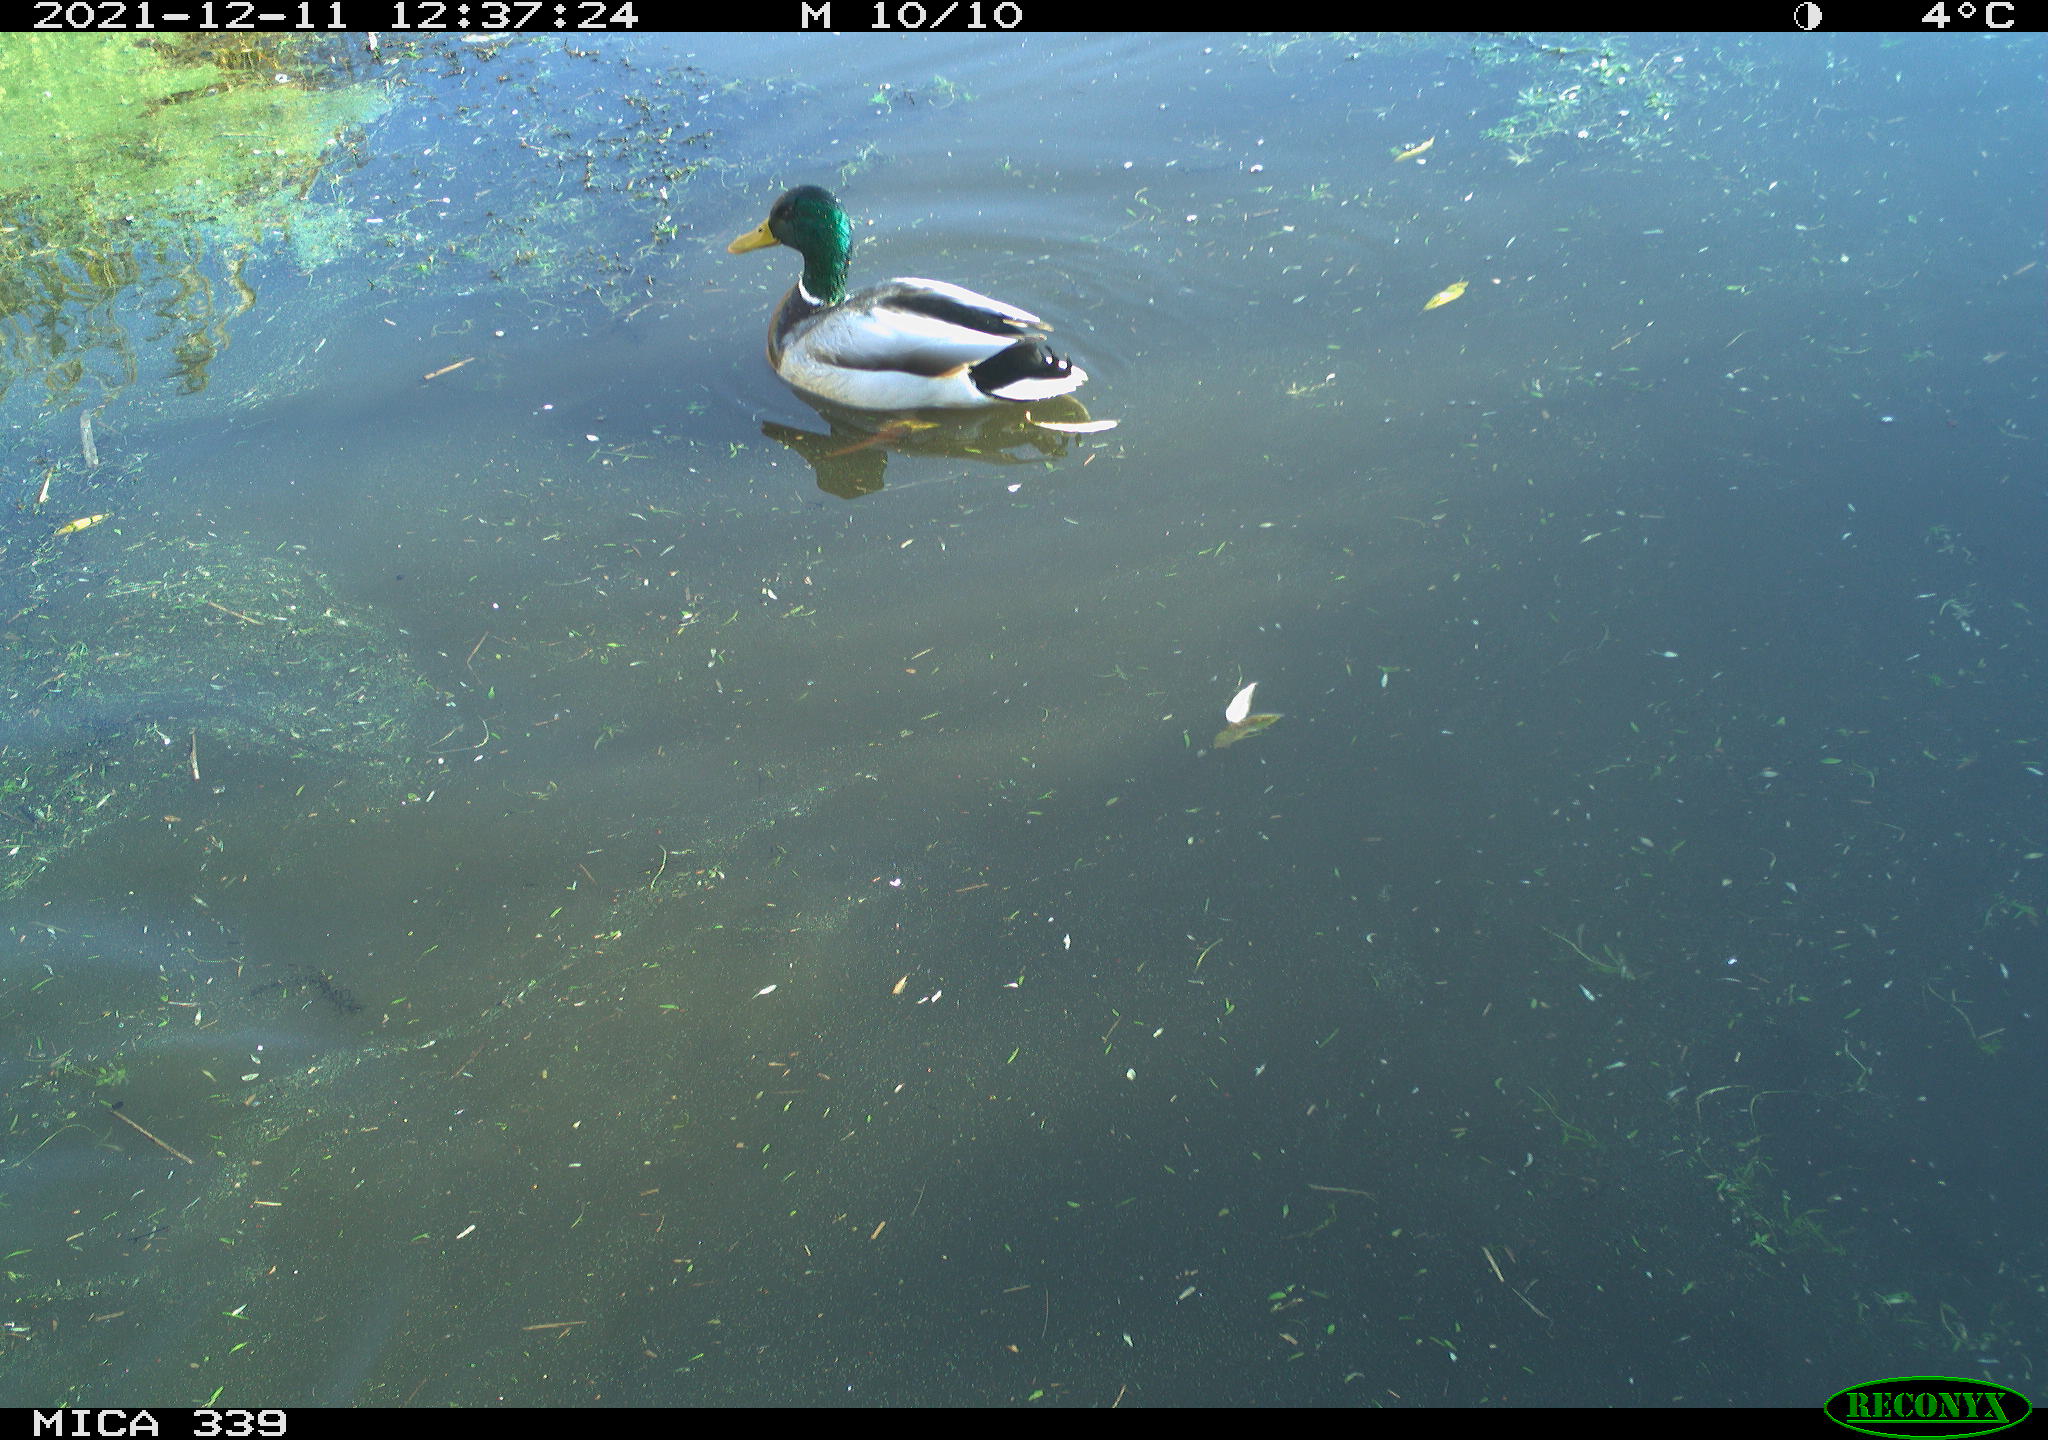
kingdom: Animalia
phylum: Chordata
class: Aves
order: Anseriformes
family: Anatidae
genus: Anas
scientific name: Anas platyrhynchos
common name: Mallard
